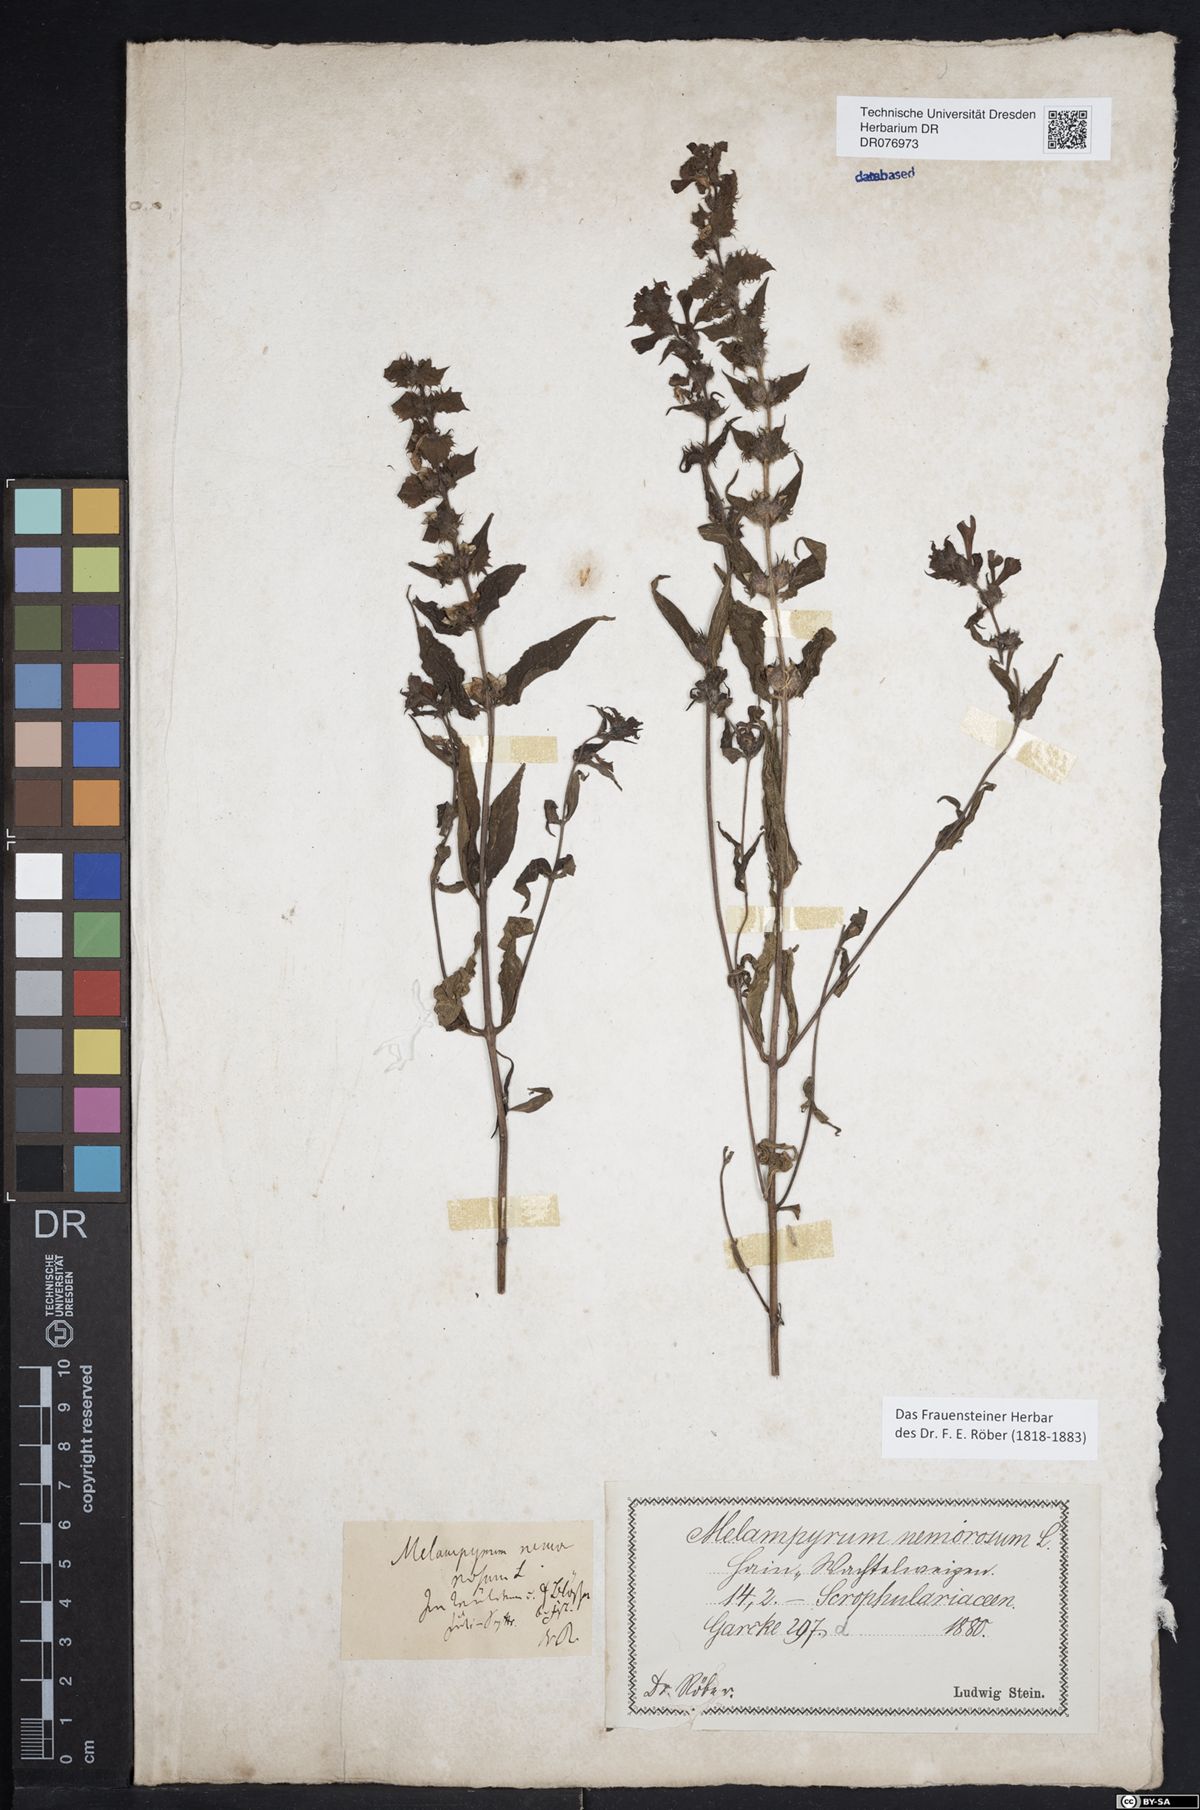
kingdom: Plantae
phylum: Tracheophyta
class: Magnoliopsida
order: Lamiales
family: Orobanchaceae
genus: Melampyrum
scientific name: Melampyrum nemorosum
